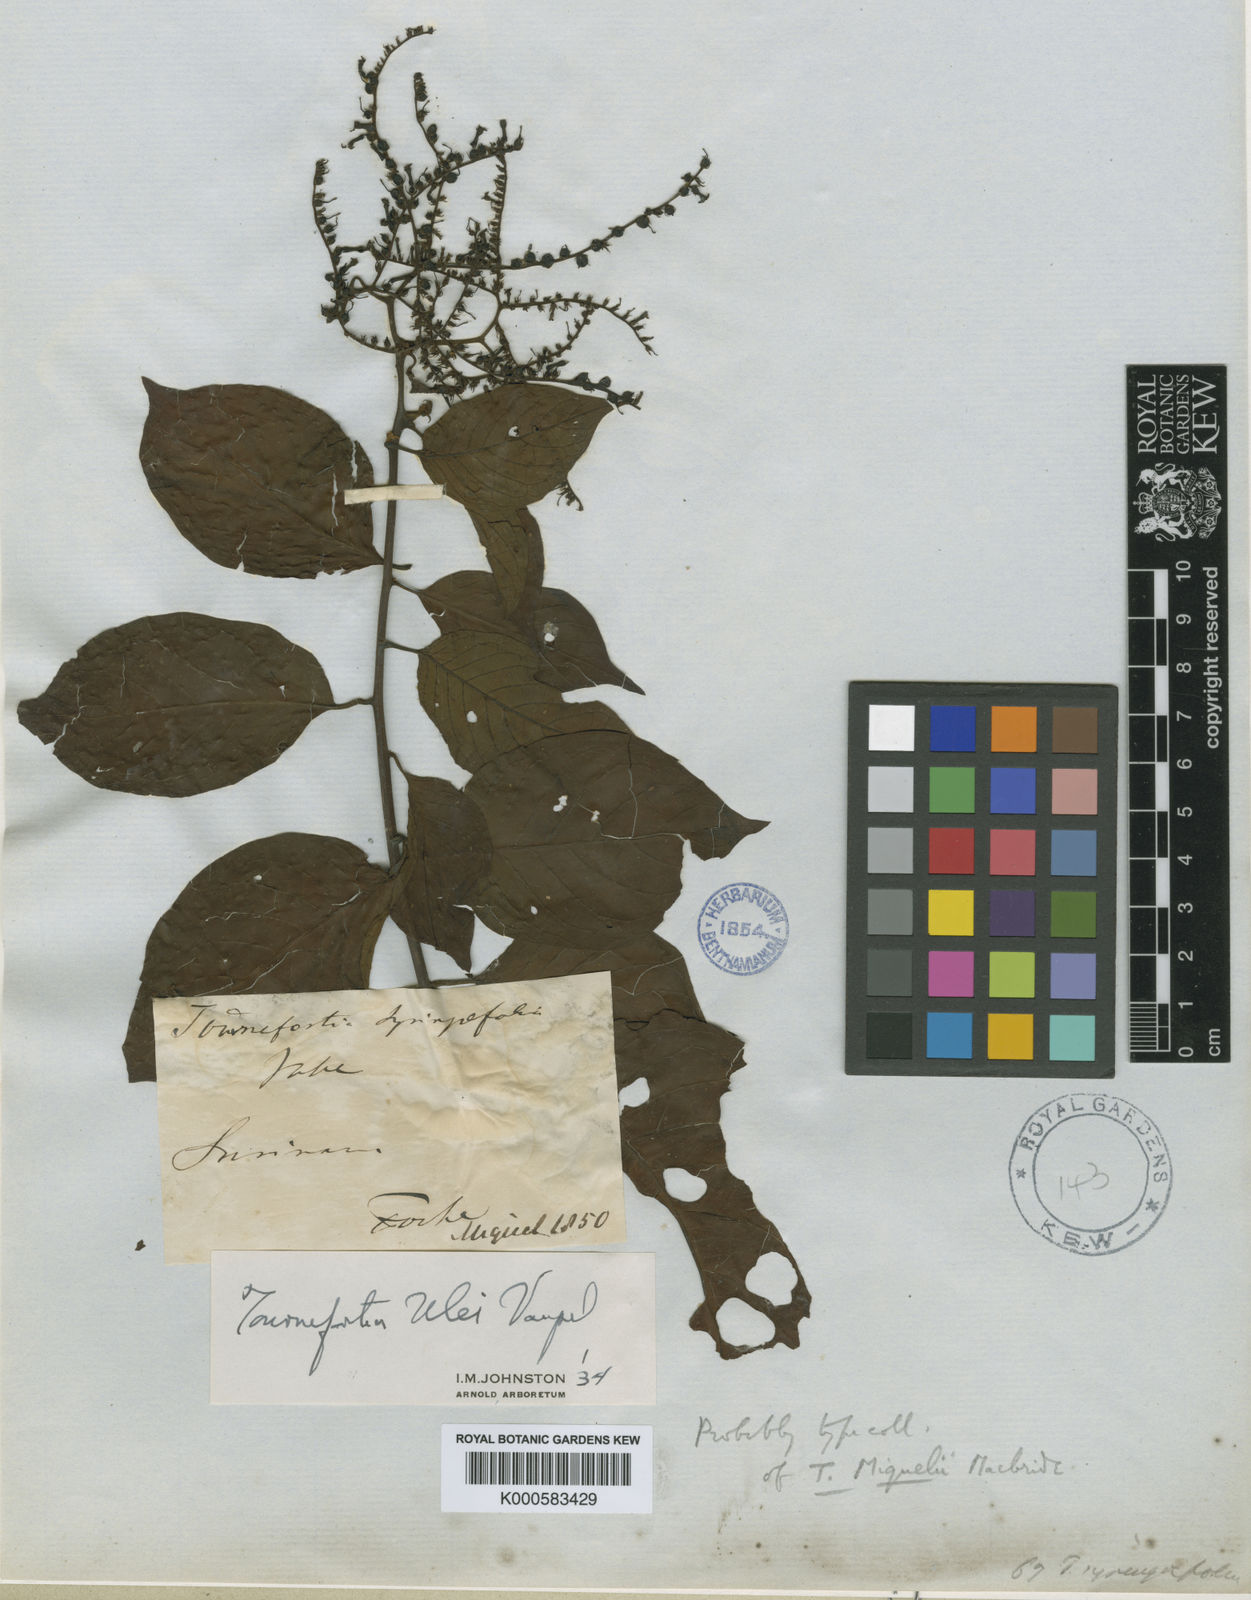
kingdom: Plantae
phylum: Tracheophyta
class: Magnoliopsida
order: Boraginales
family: Heliotropiaceae
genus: Heliotropium
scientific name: Heliotropium ulei
